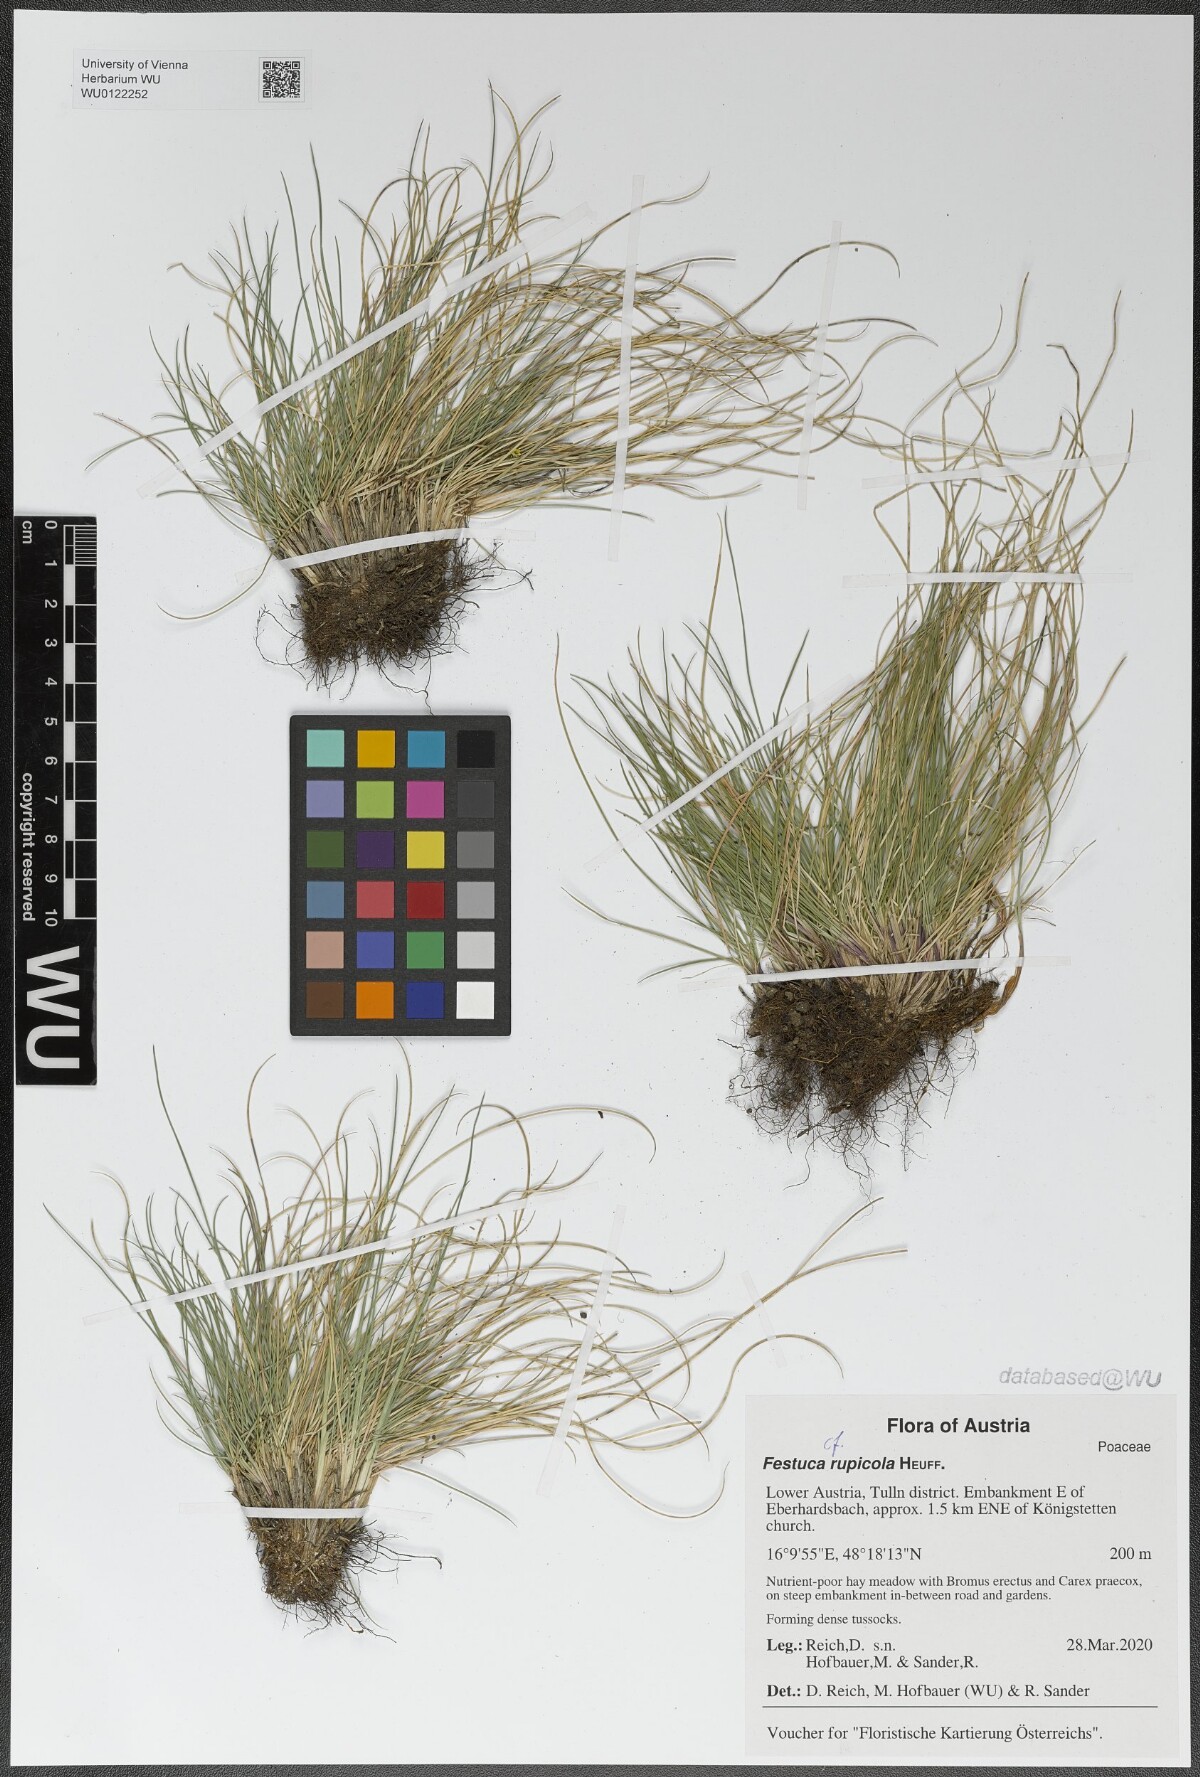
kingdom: Plantae
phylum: Tracheophyta
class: Liliopsida
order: Poales
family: Poaceae
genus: Festuca
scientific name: Festuca rupicola
